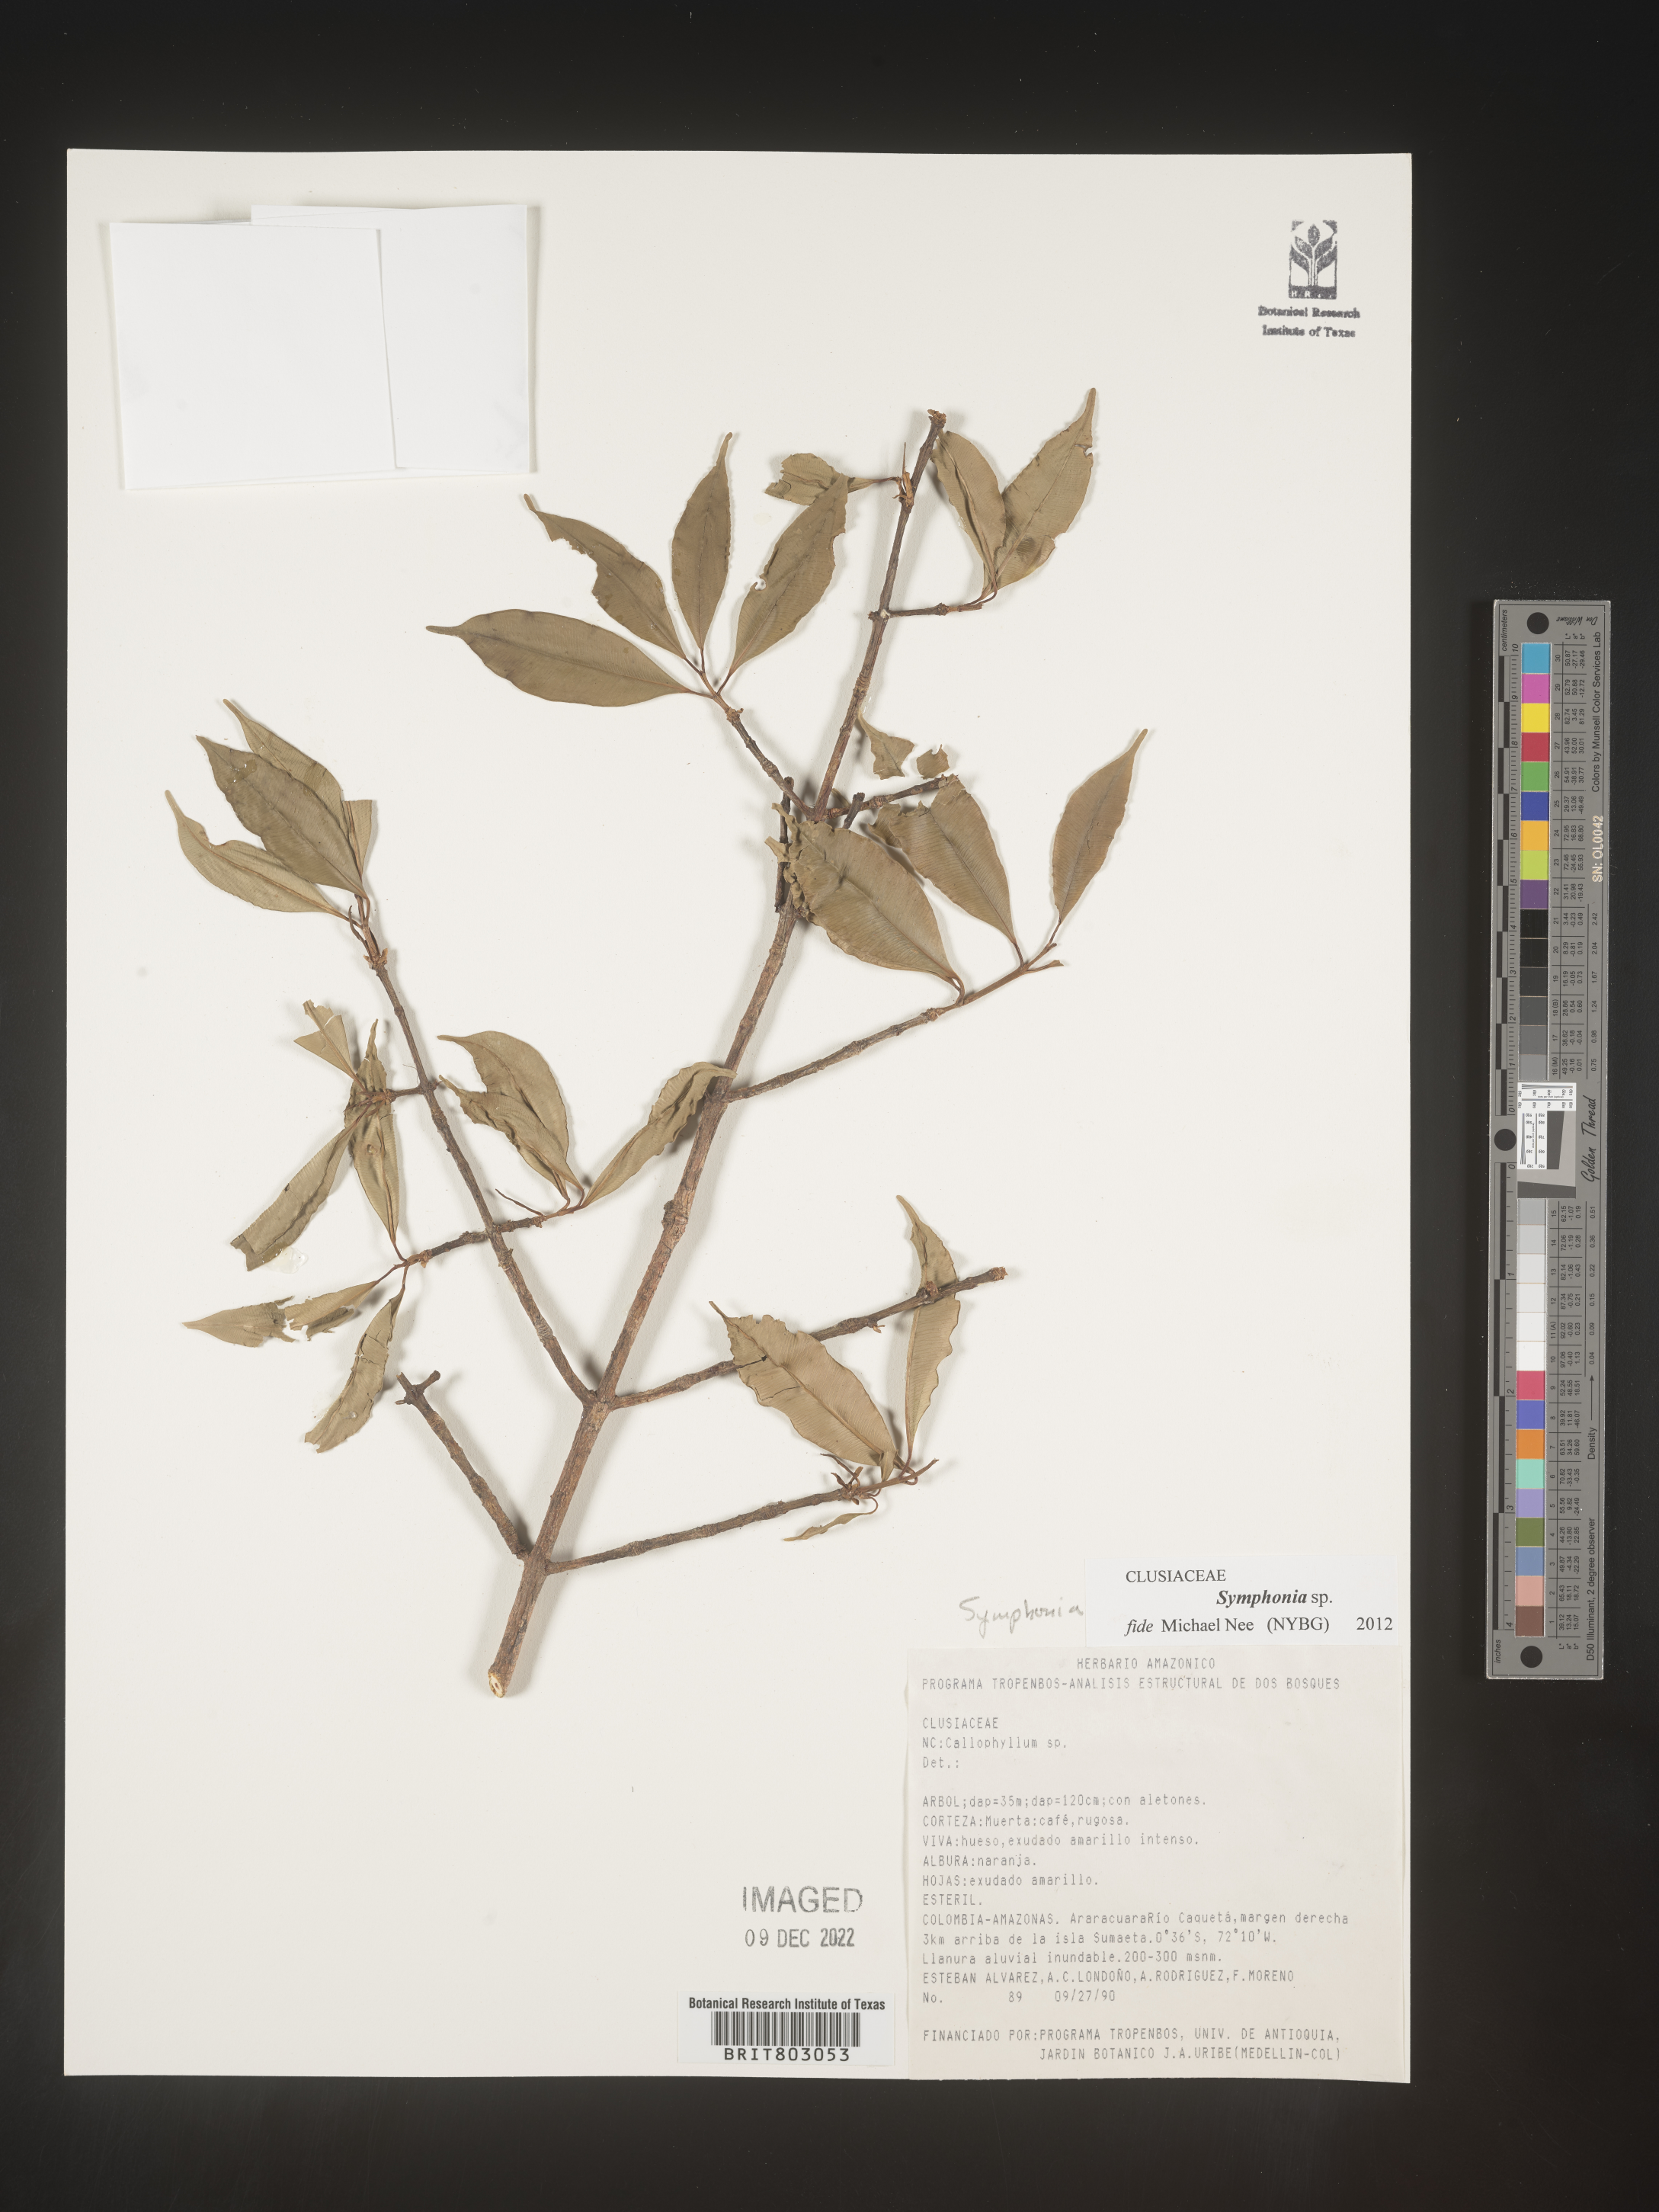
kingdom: Plantae
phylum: Tracheophyta
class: Magnoliopsida
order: Malpighiales
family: Clusiaceae
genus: Symphonia
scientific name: Symphonia
